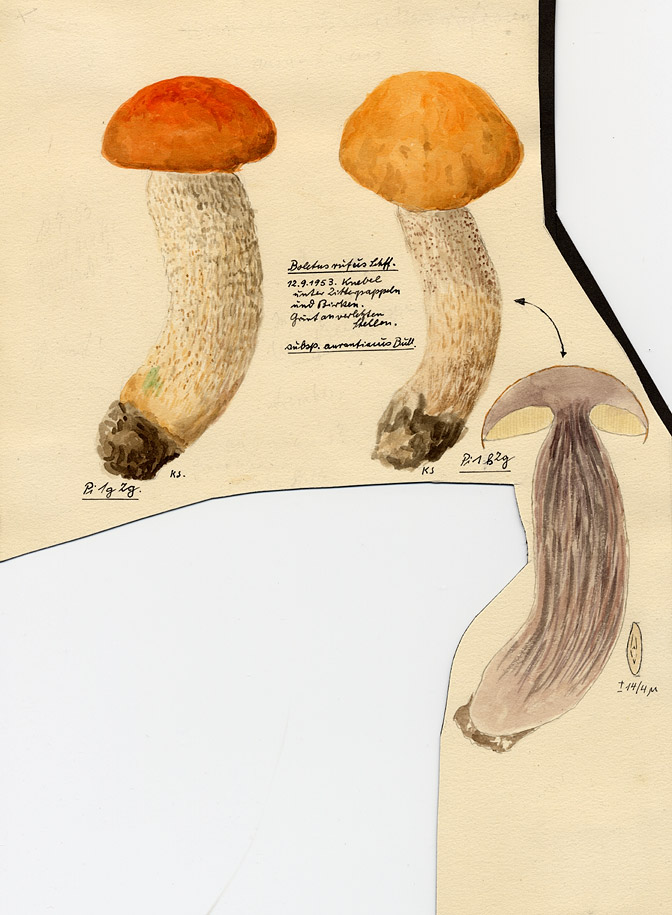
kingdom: Plantae
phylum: Tracheophyta
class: Magnoliopsida
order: Malpighiales
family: Salicaceae
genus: Populus
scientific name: Populus tremula
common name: European aspen
